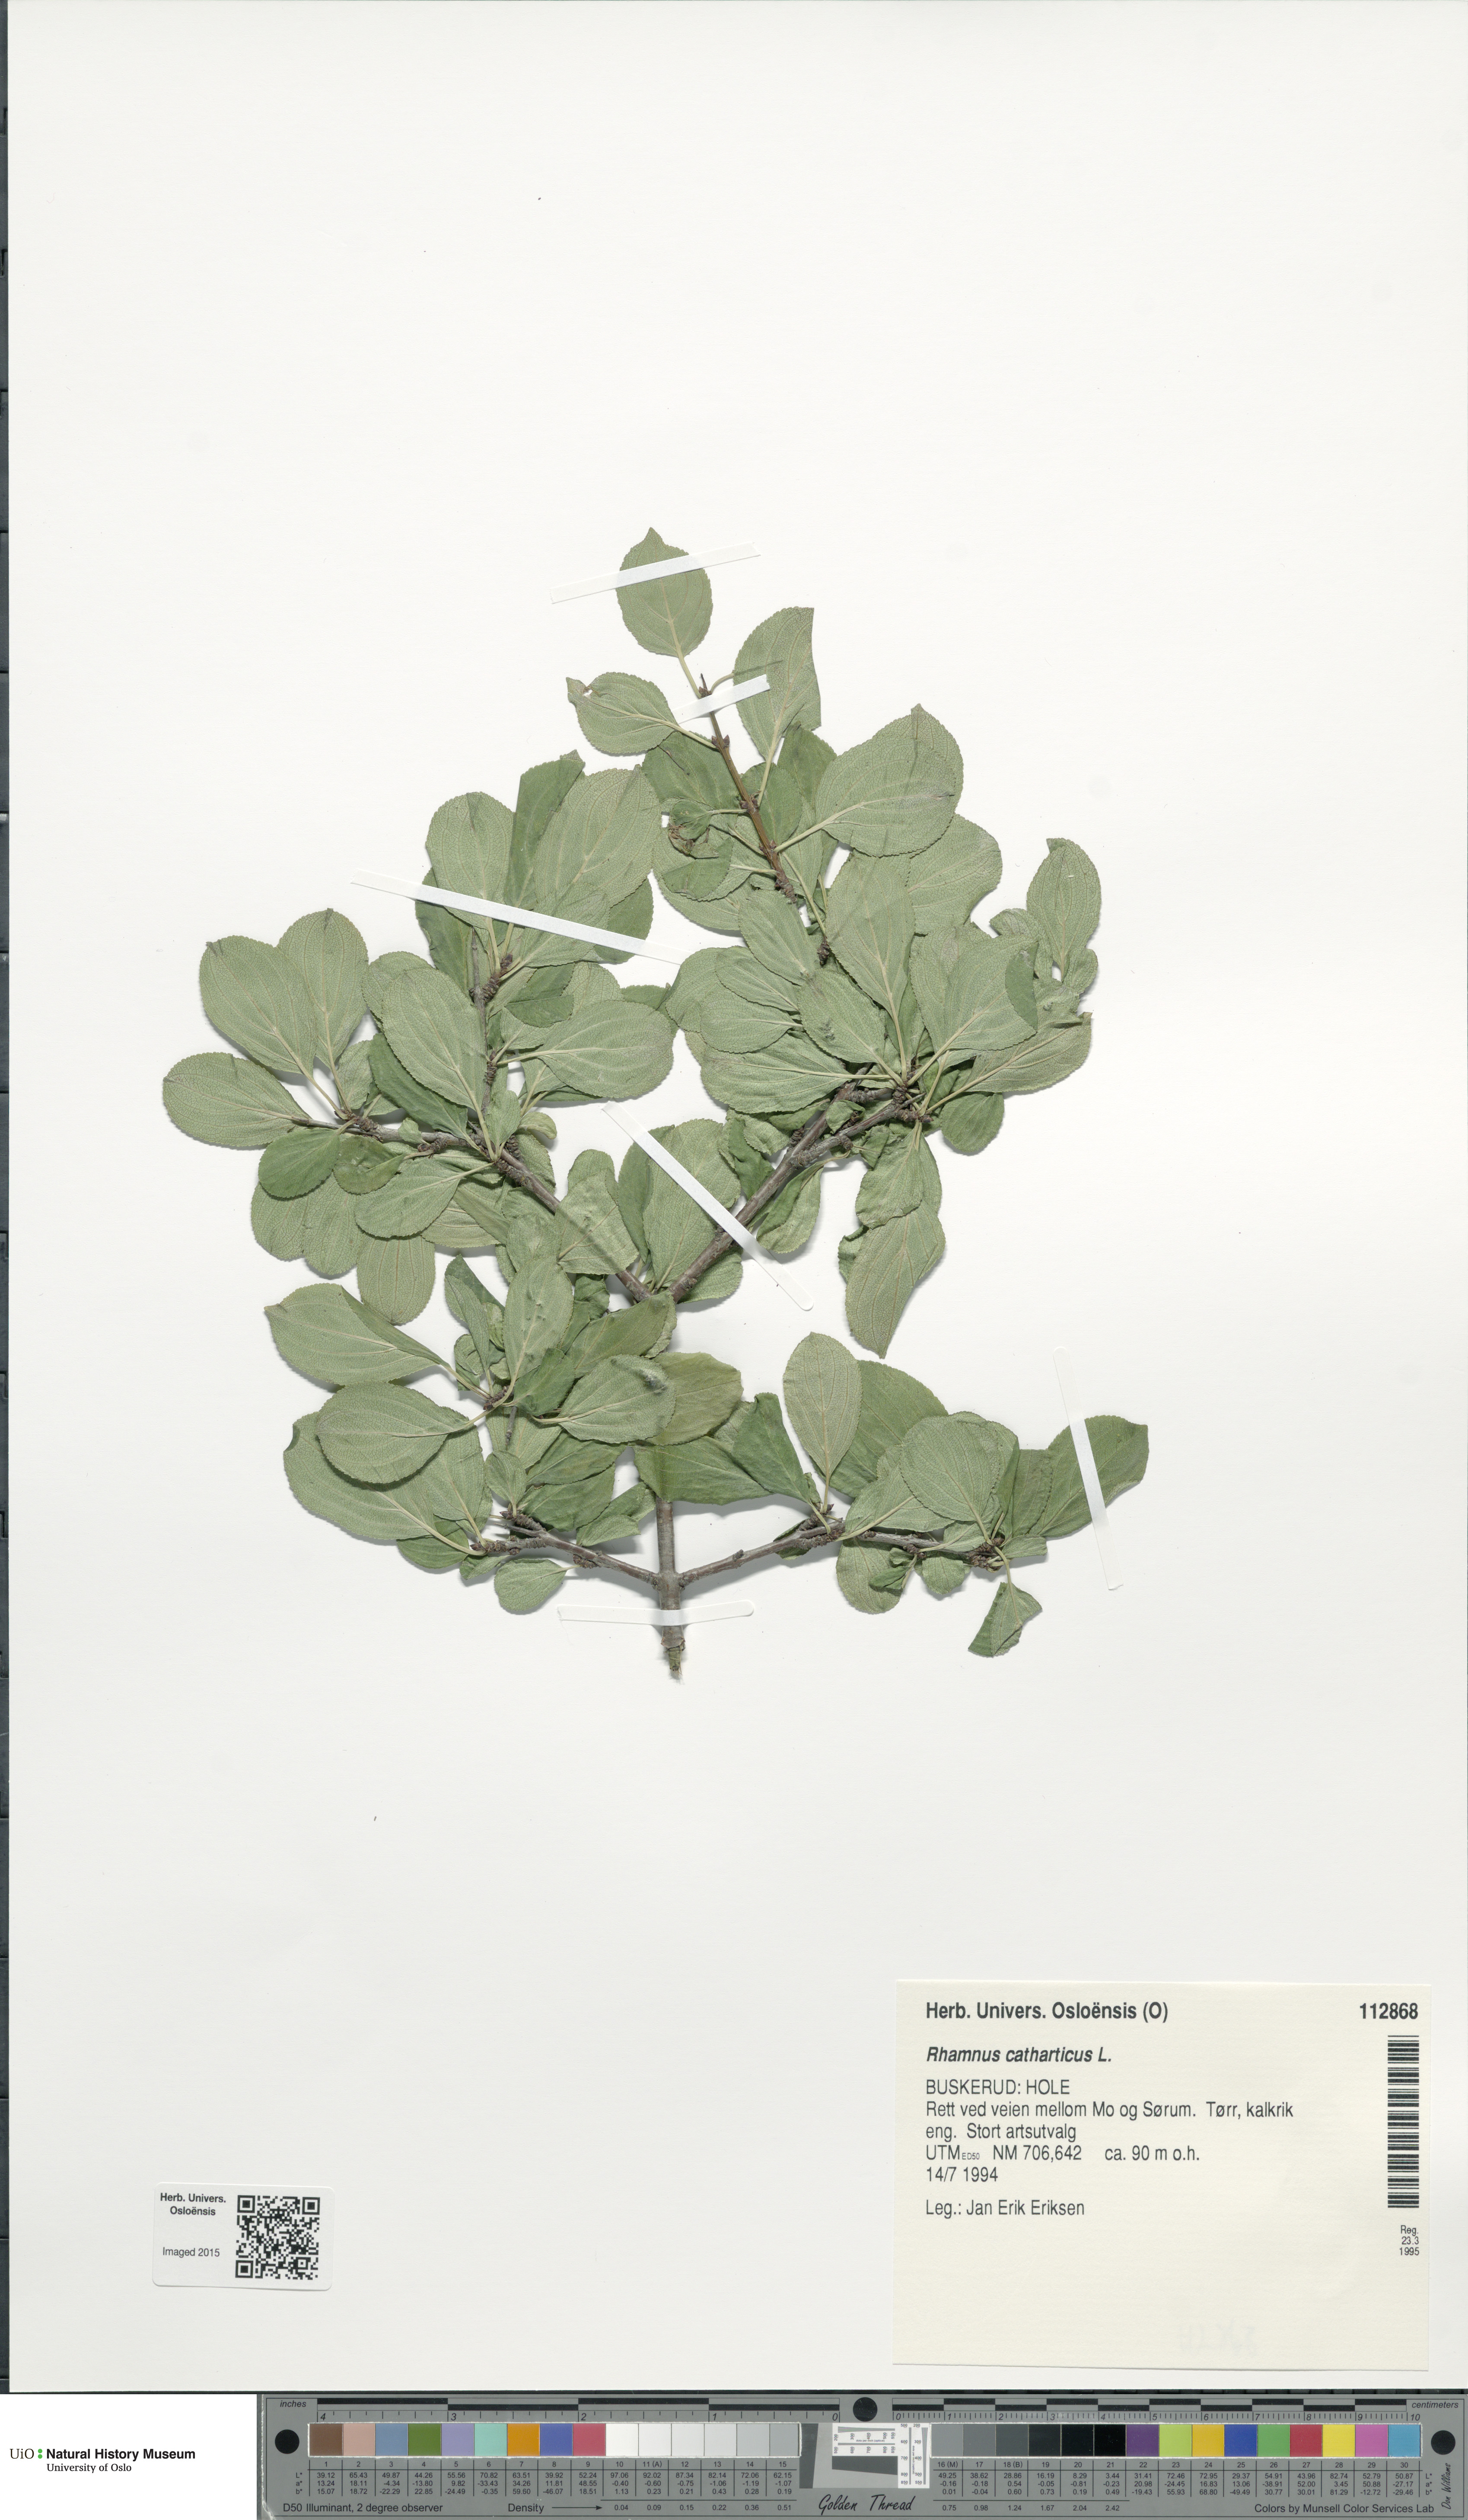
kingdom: Plantae
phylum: Tracheophyta
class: Magnoliopsida
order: Rosales
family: Rhamnaceae
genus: Rhamnus
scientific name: Rhamnus cathartica
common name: Common buckthorn
